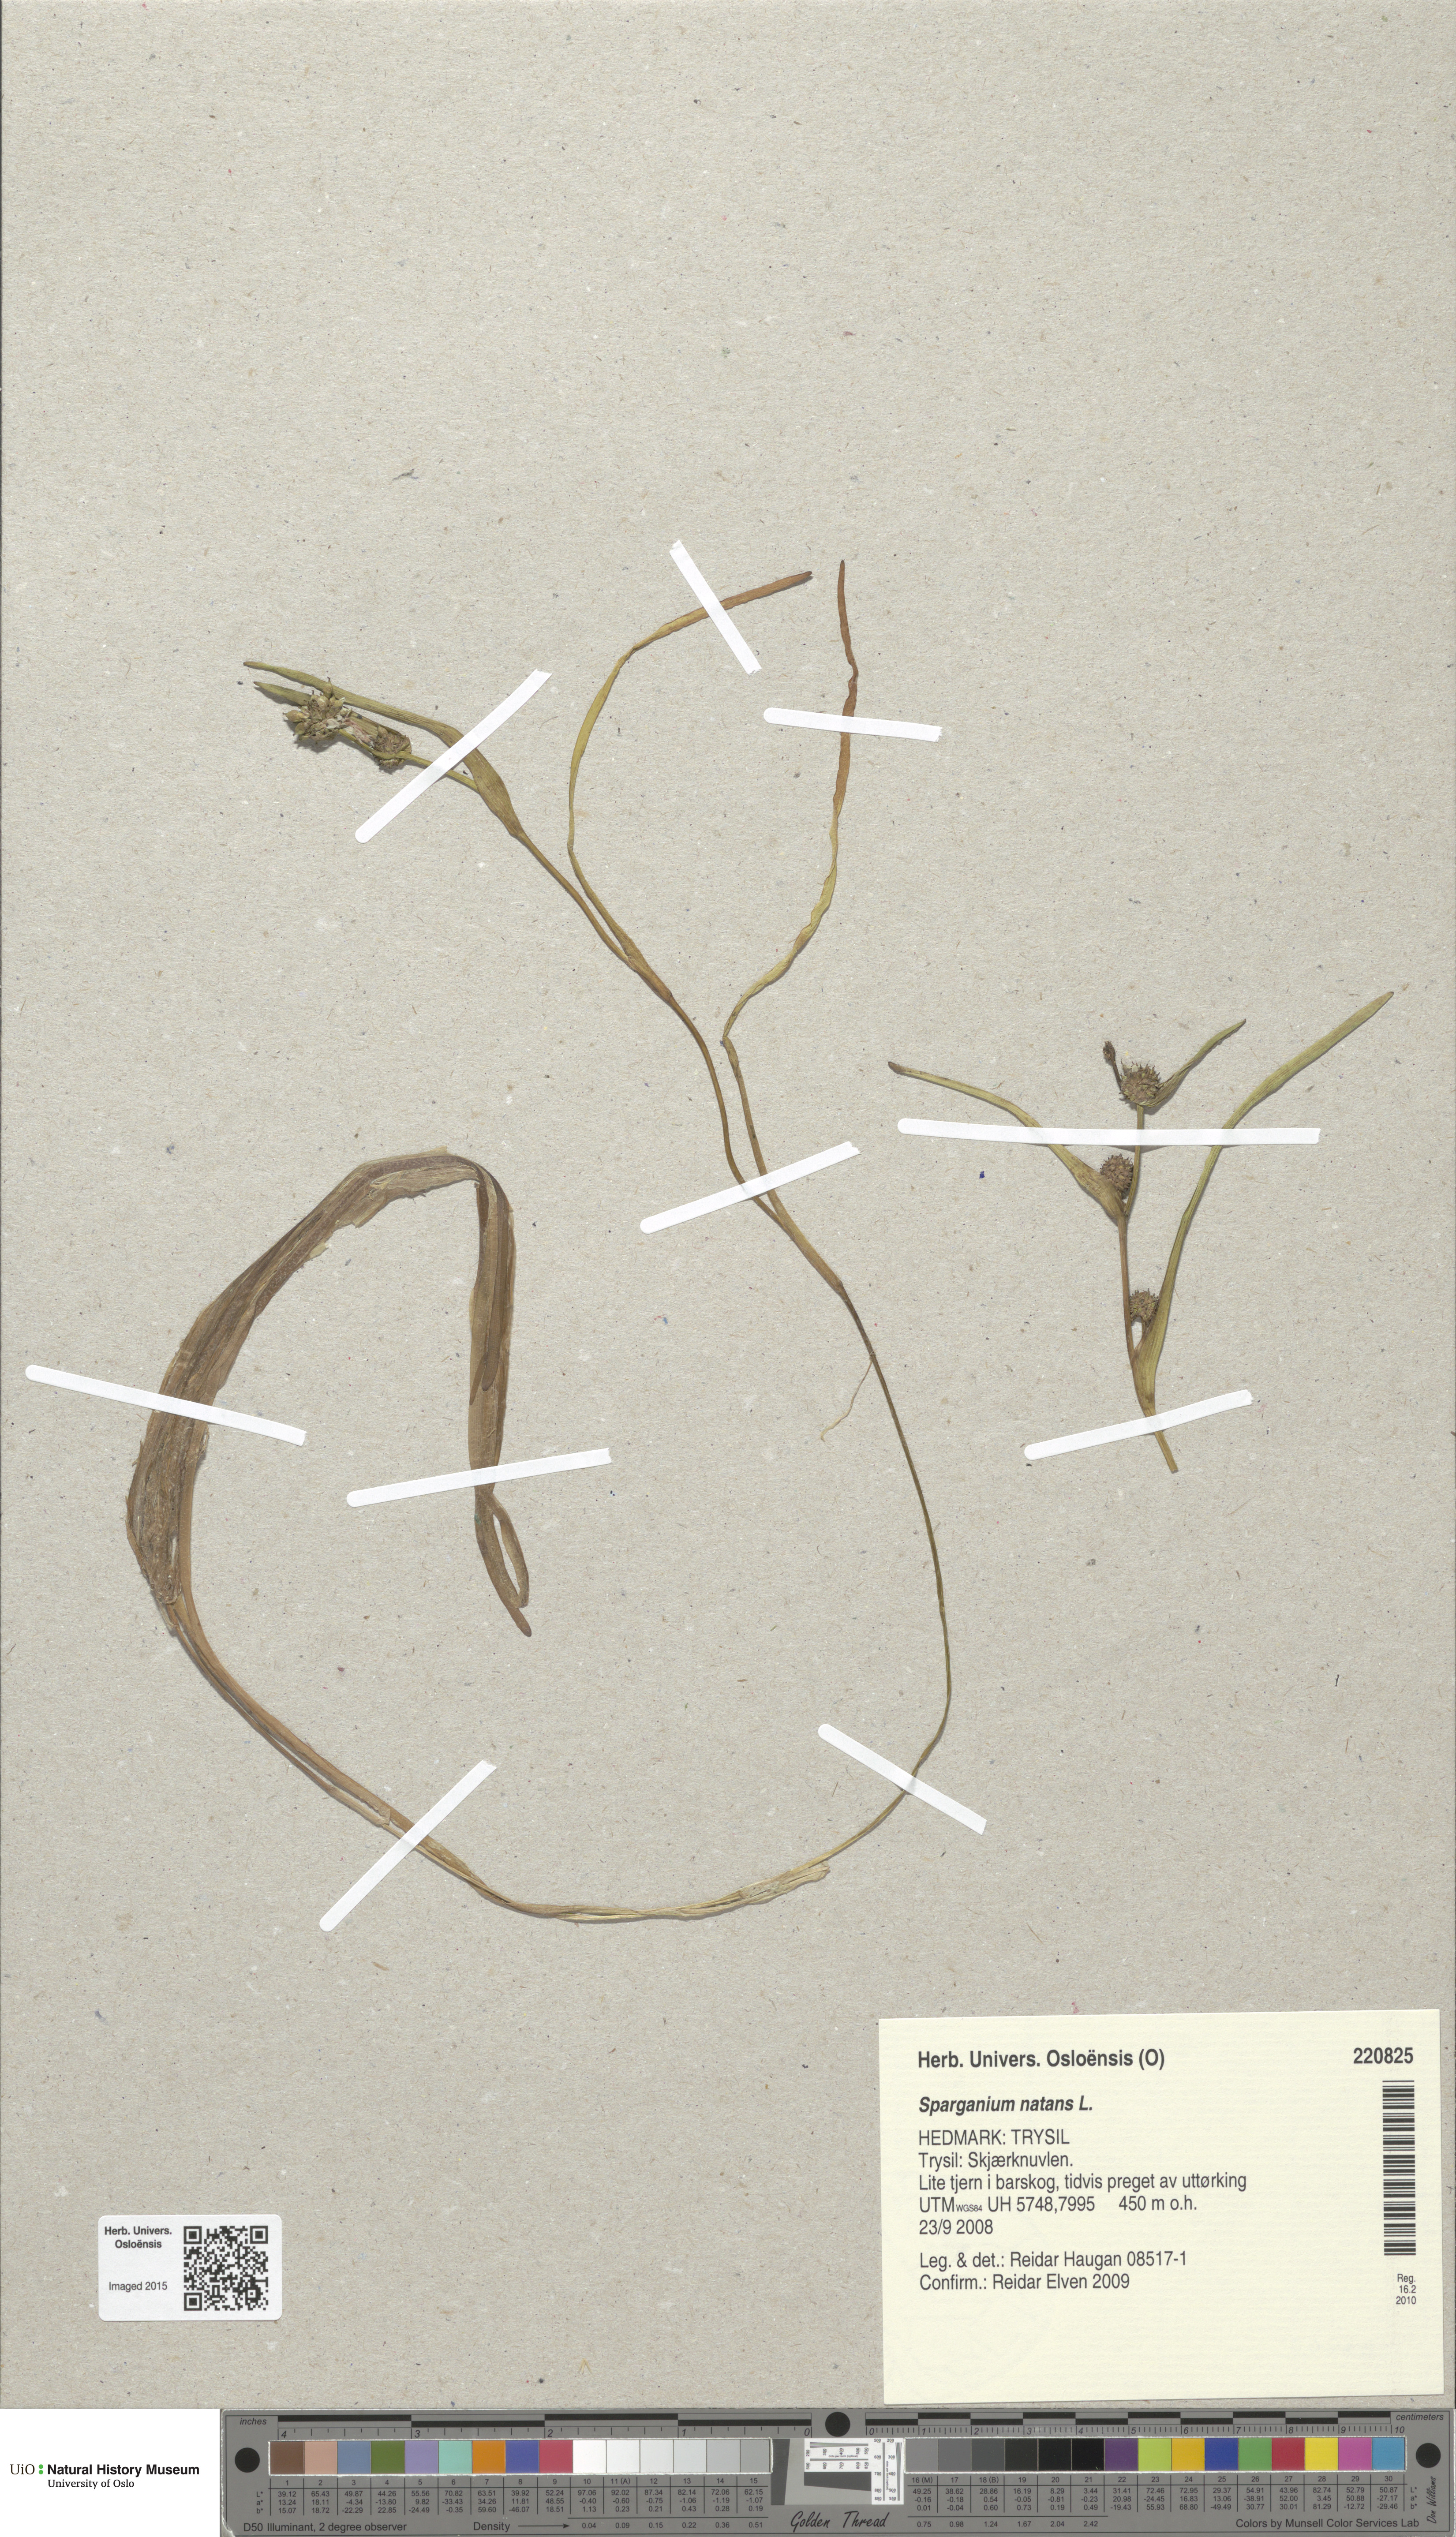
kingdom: Plantae
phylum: Tracheophyta
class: Liliopsida
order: Poales
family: Typhaceae
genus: Sparganium
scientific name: Sparganium natans
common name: Least bur-reed
